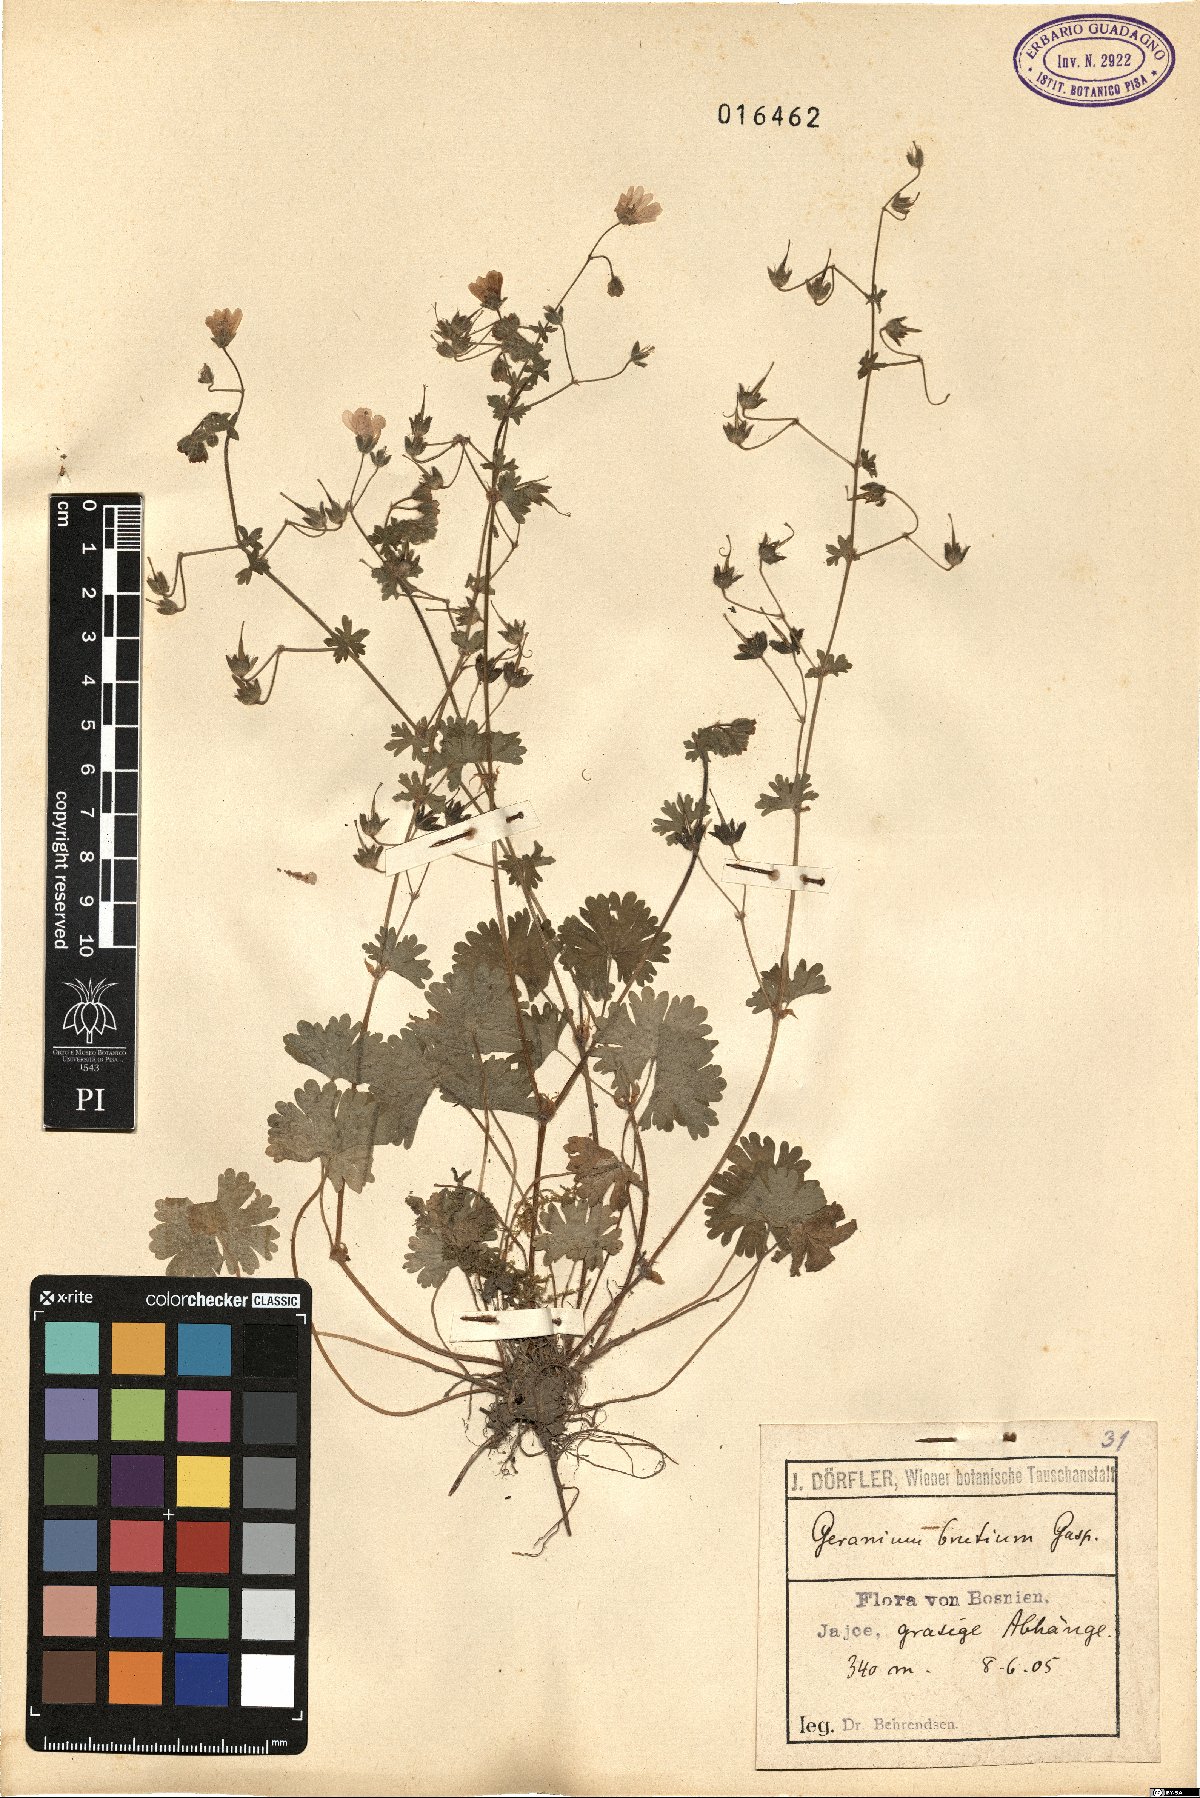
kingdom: Plantae
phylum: Tracheophyta
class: Magnoliopsida
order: Geraniales
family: Geraniaceae
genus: Geranium
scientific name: Geranium molle
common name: Dove's-foot crane's-bill
